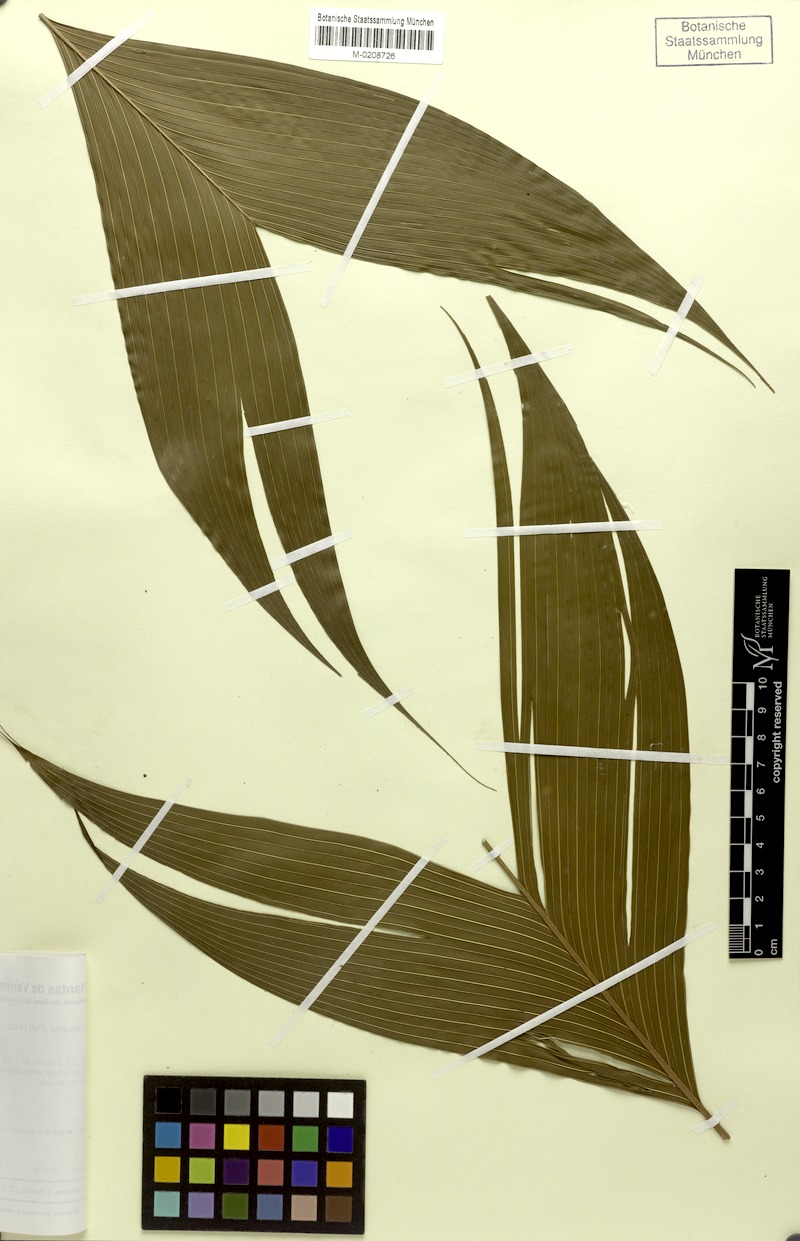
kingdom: Plantae
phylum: Tracheophyta
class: Liliopsida
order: Arecales
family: Arecaceae
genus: Geonoma
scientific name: Geonoma deversa
